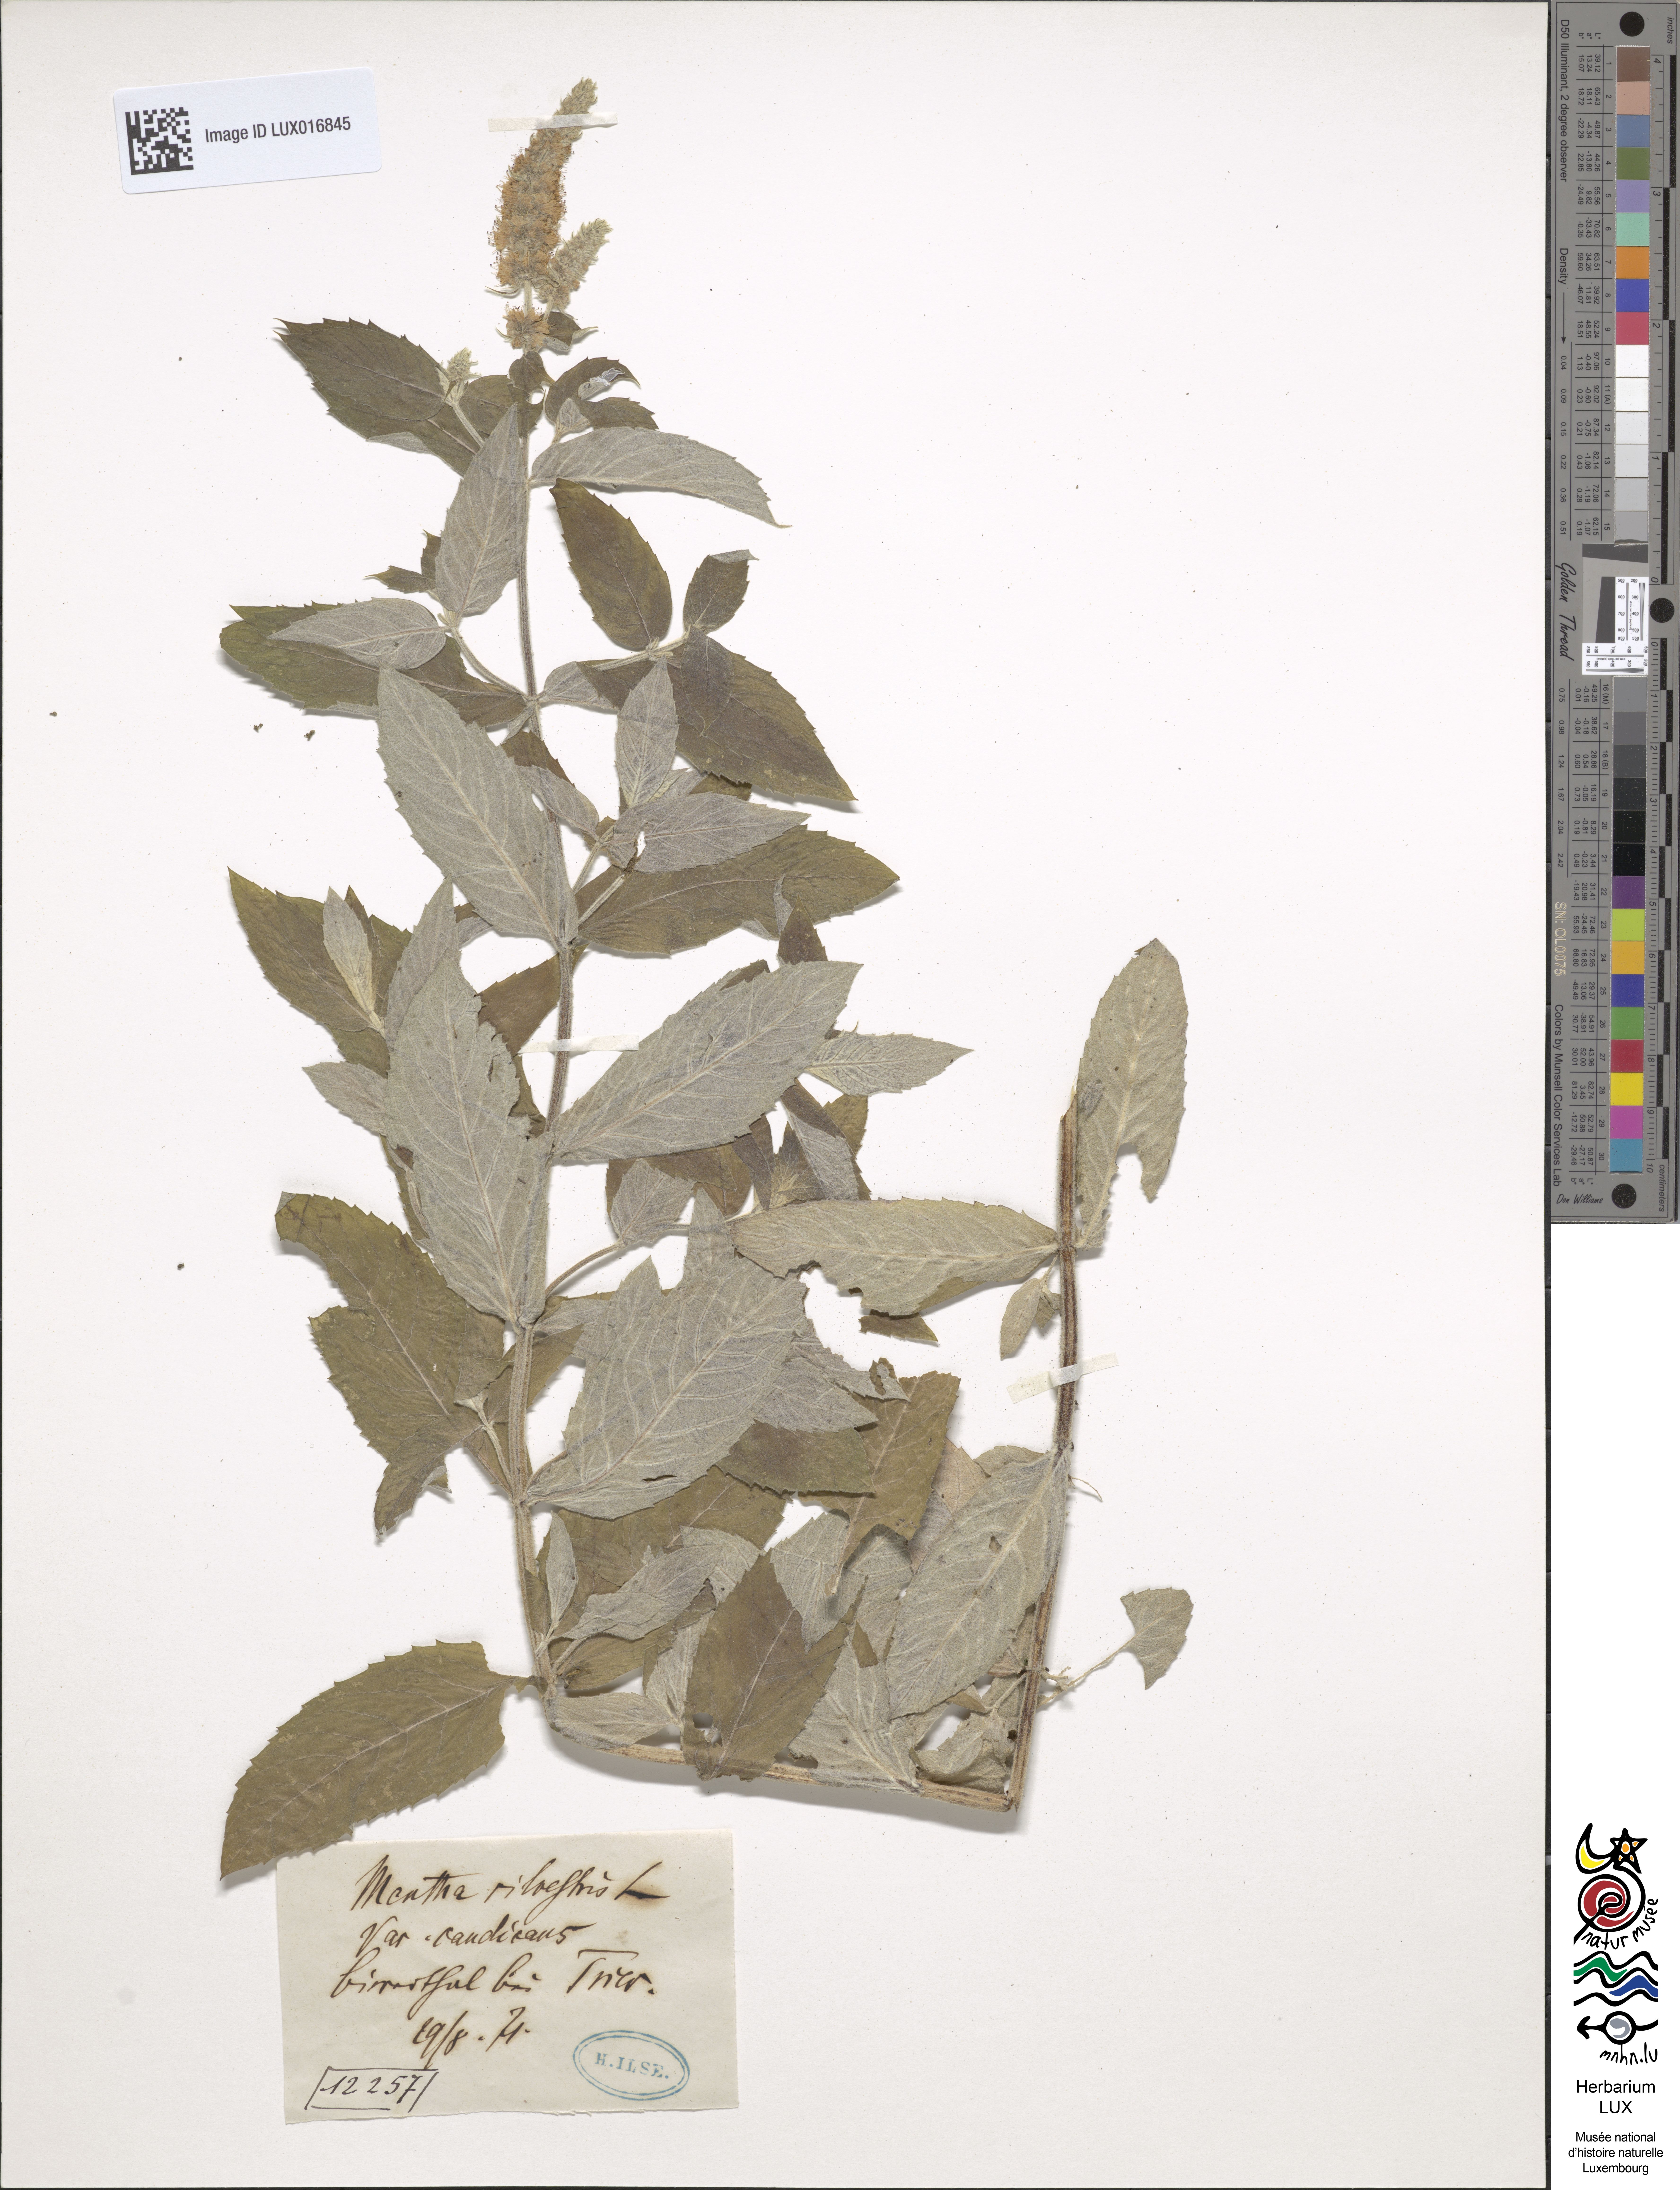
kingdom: Plantae
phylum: Tracheophyta
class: Magnoliopsida
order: Lamiales
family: Lamiaceae
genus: Mentha
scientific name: Mentha longifolia
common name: Horse mint
